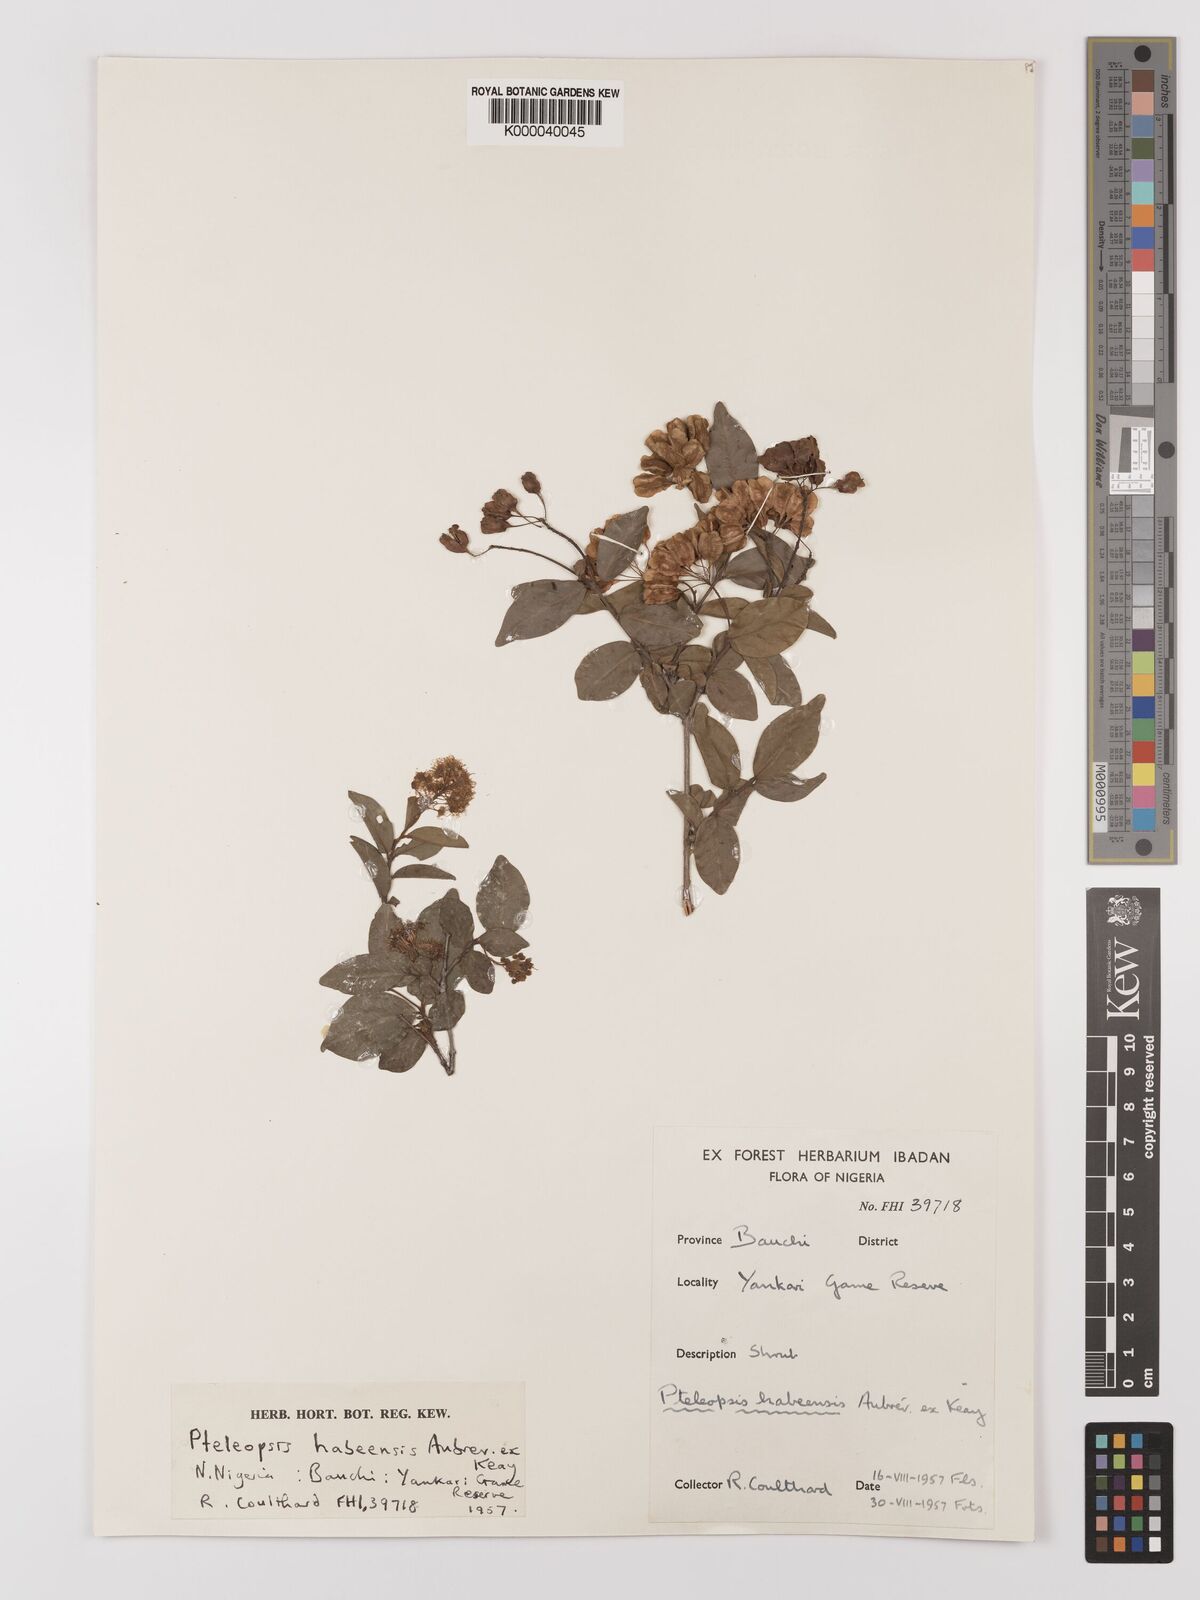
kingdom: Plantae
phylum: Tracheophyta
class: Magnoliopsida
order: Myrtales
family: Combretaceae
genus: Terminalia
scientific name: Terminalia
